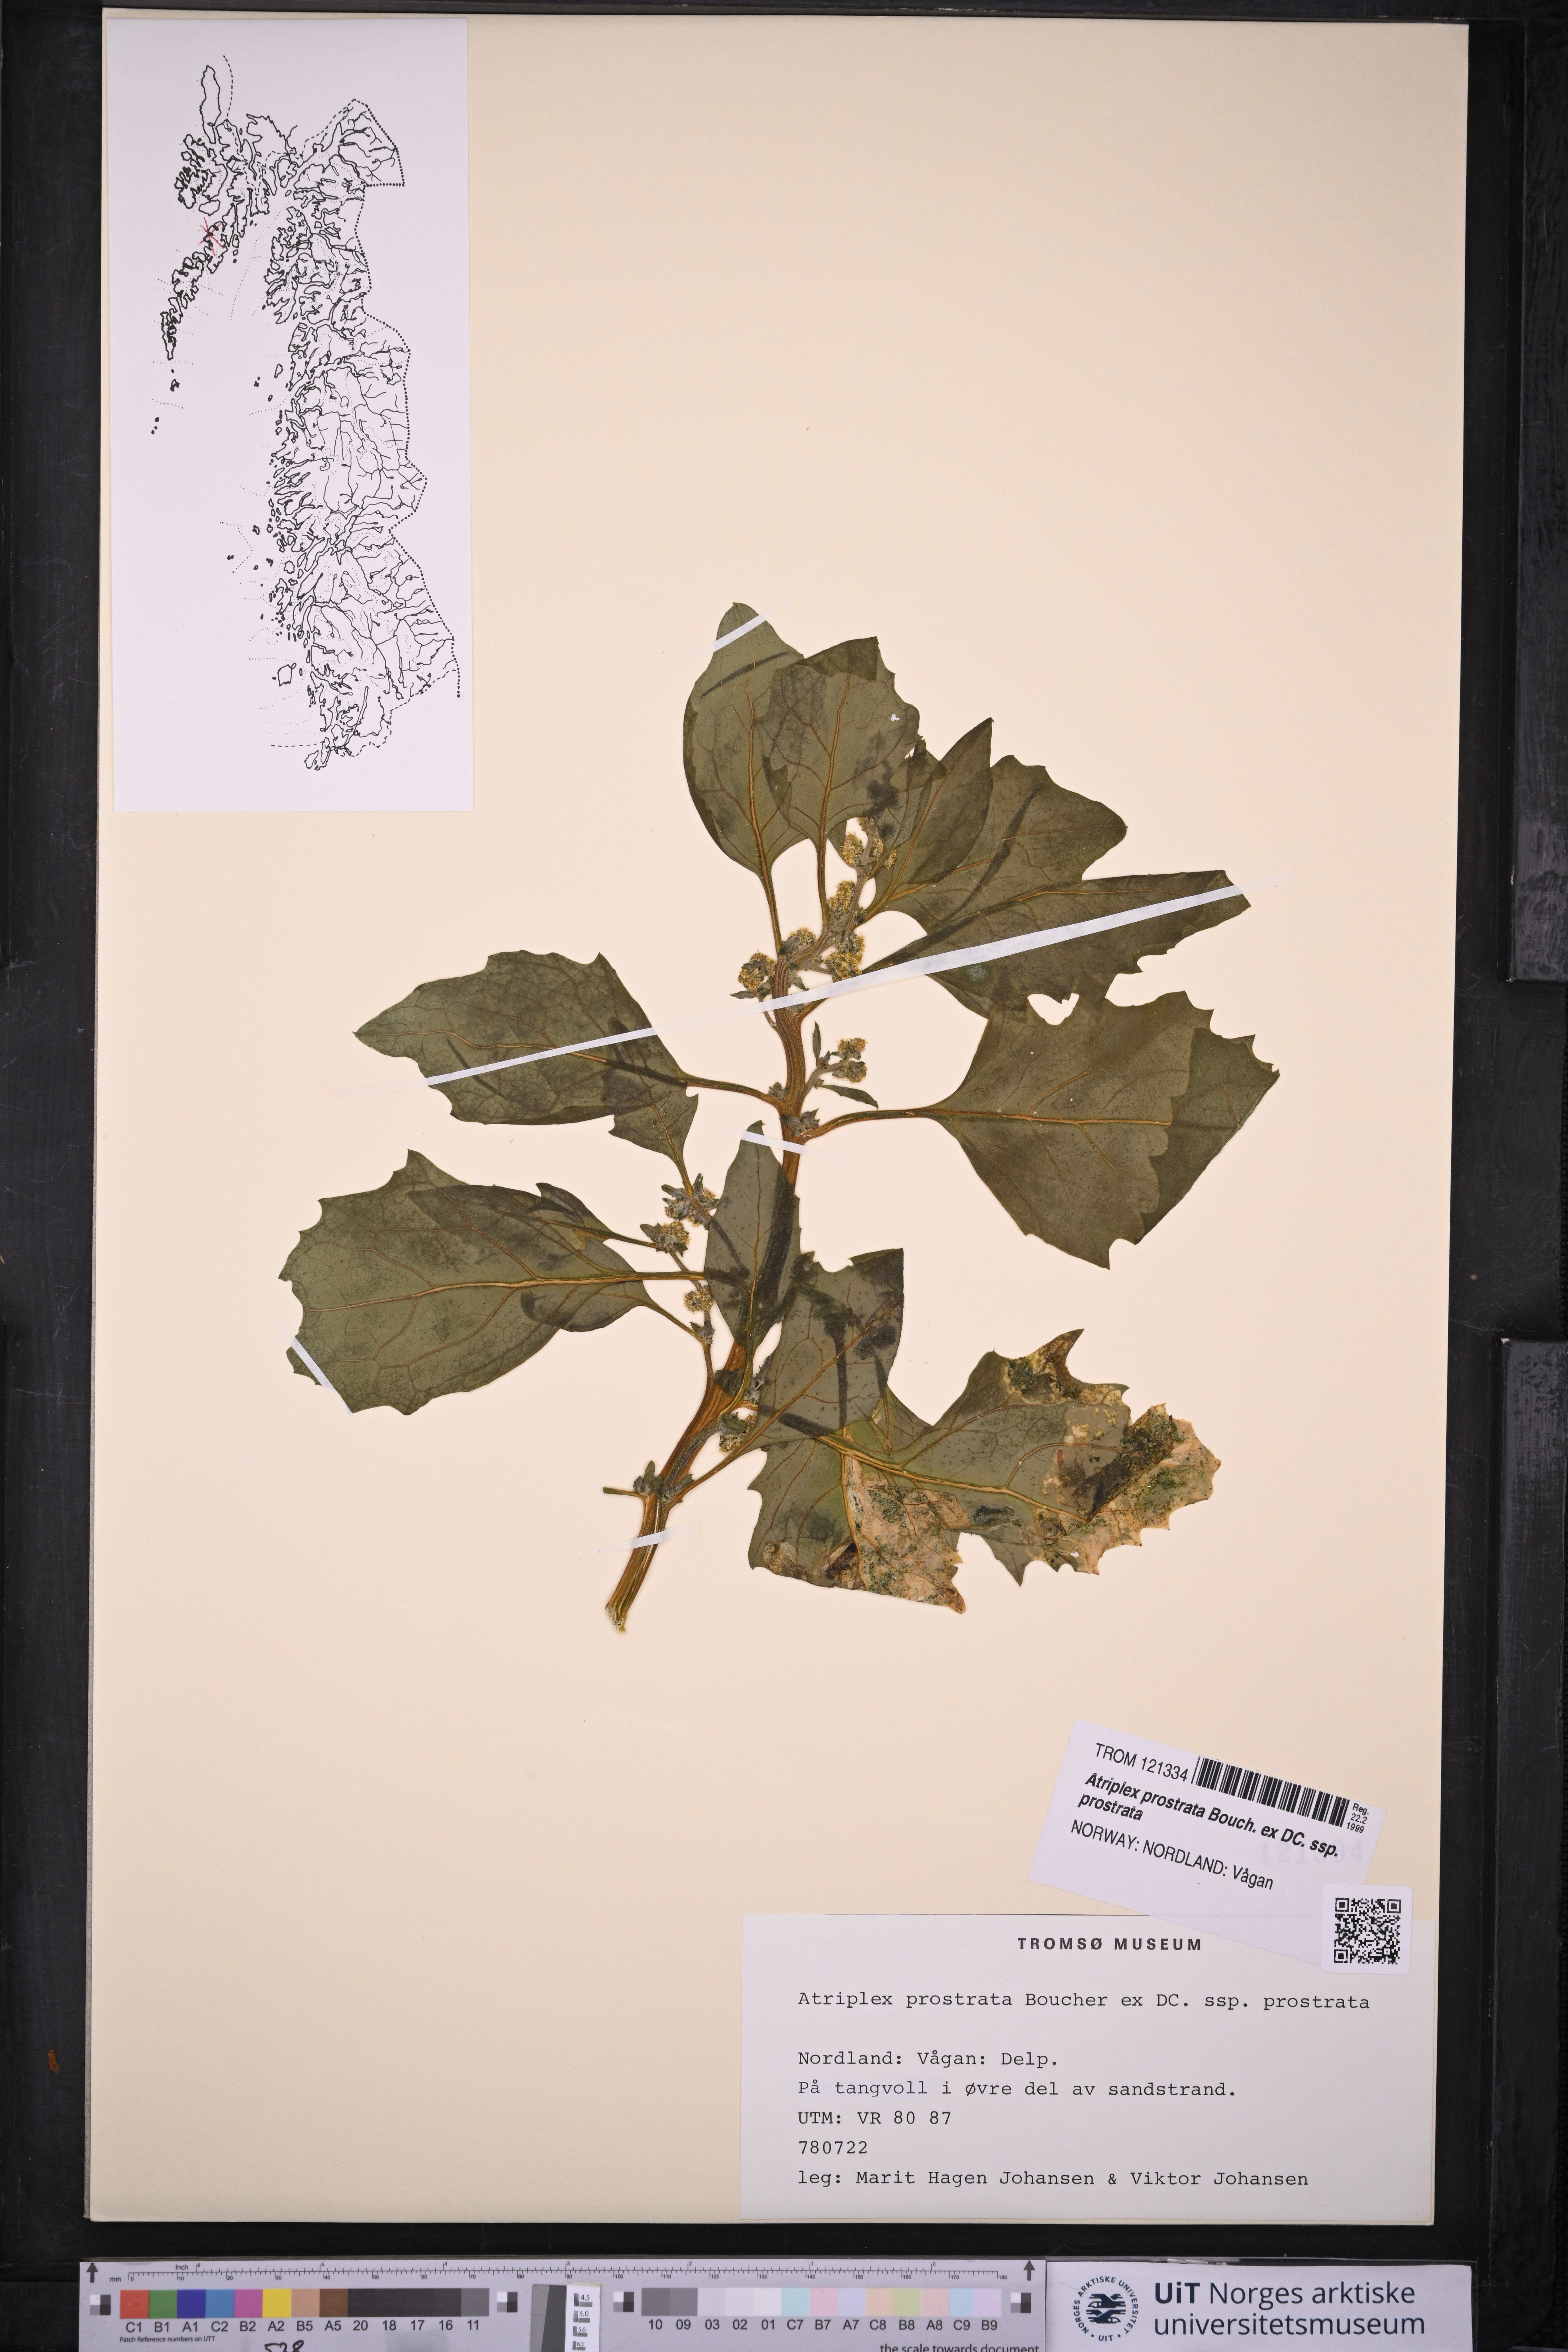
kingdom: Plantae
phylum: Tracheophyta
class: Magnoliopsida
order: Caryophyllales
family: Amaranthaceae
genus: Atriplex
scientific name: Atriplex prostrata
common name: Spear-leaved orache
